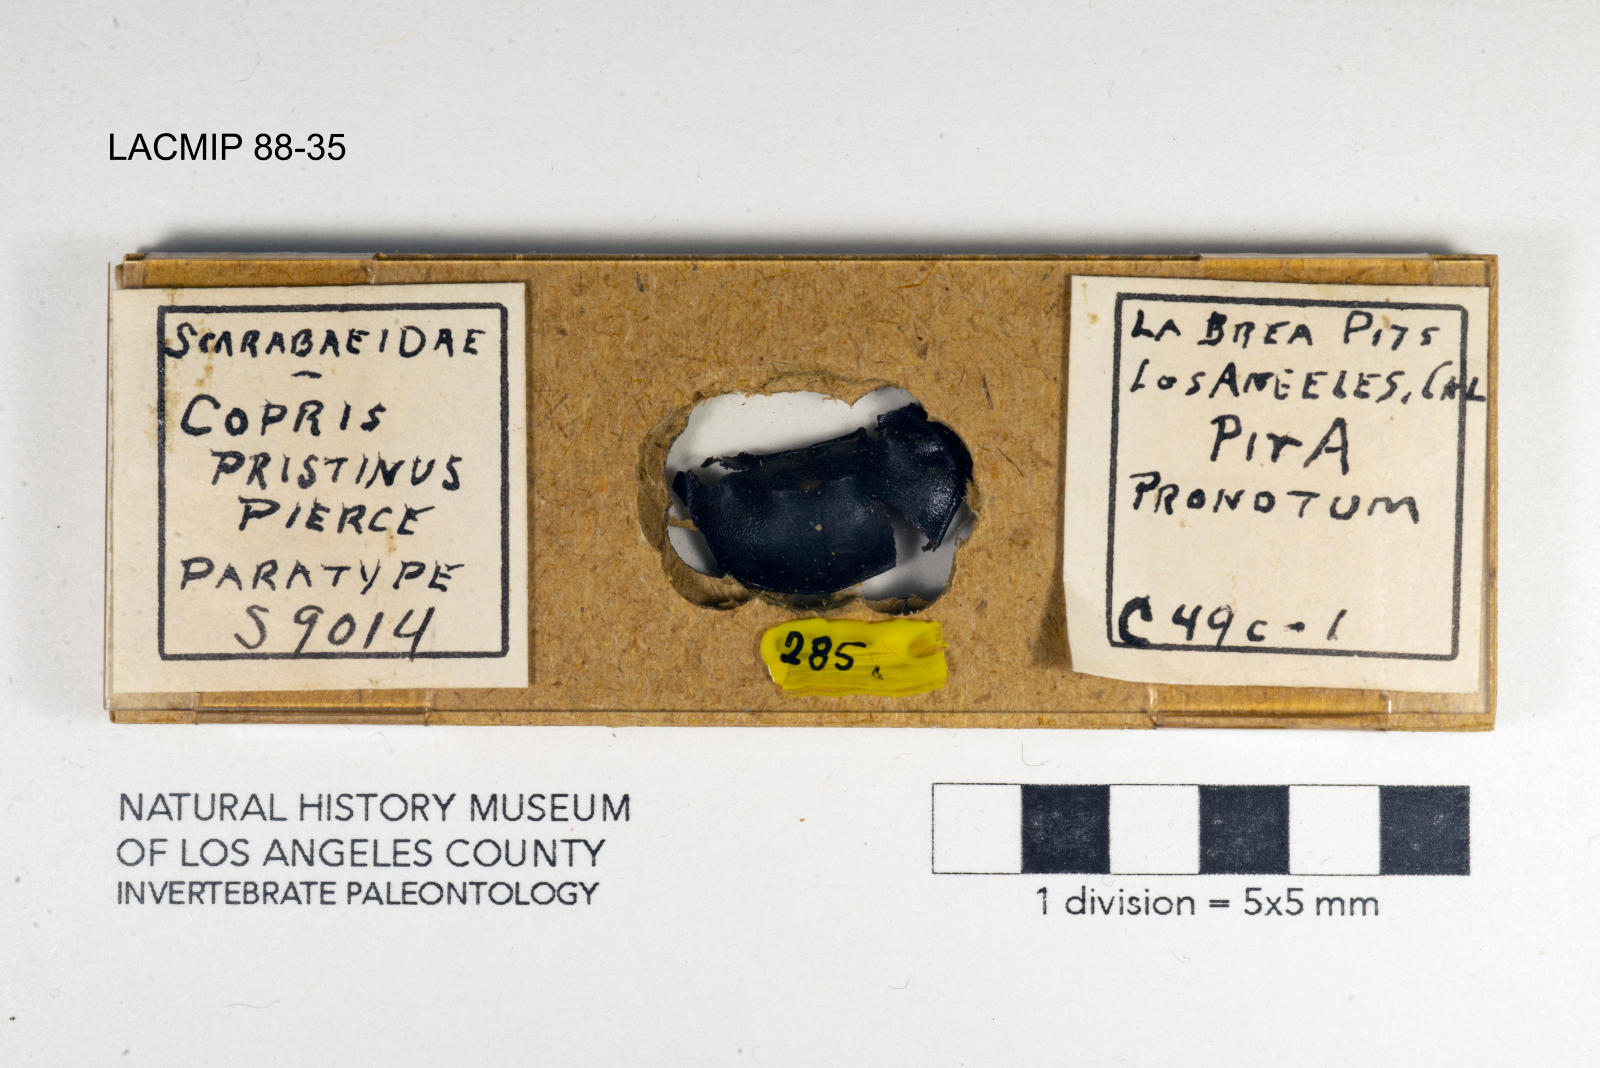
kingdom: Animalia
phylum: Arthropoda
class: Insecta
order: Coleoptera
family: Scarabaeidae
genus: Copris
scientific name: Copris pristinus
